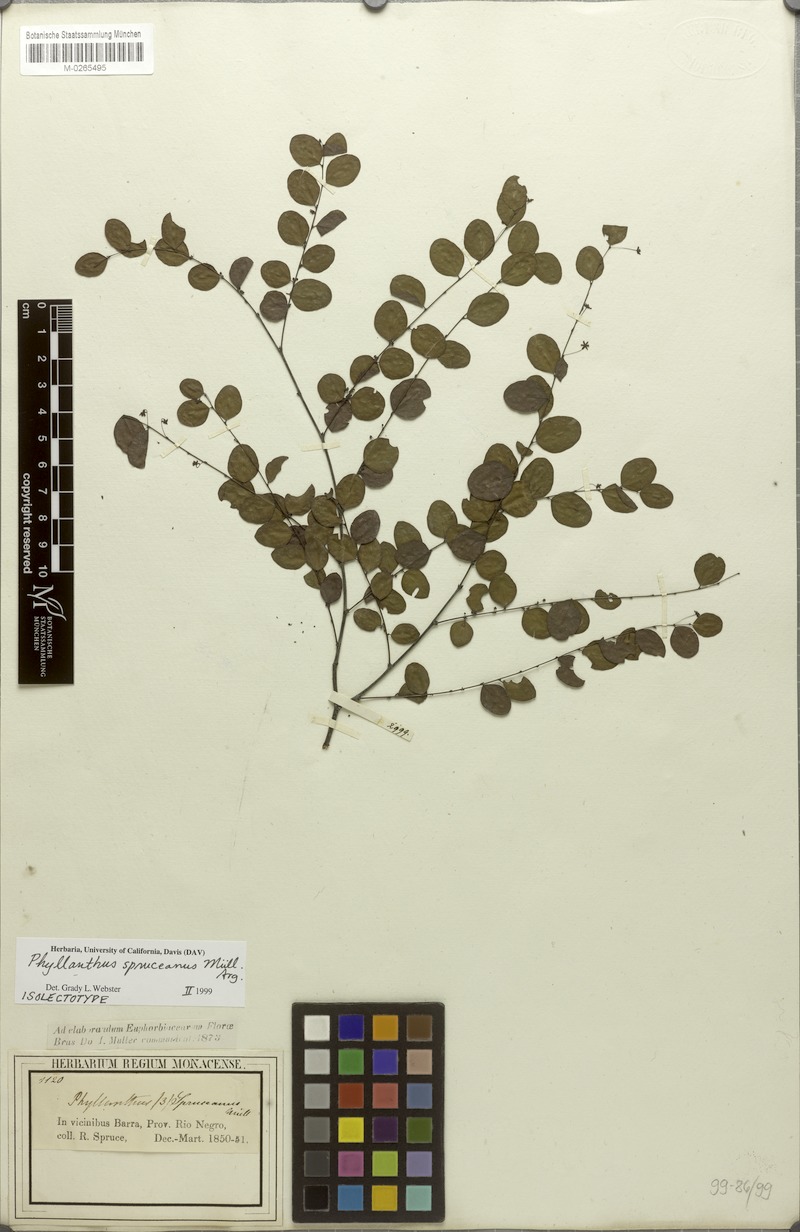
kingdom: Plantae
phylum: Tracheophyta
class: Magnoliopsida
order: Malpighiales
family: Phyllanthaceae
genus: Phyllanthus
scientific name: Phyllanthus spruceanus
